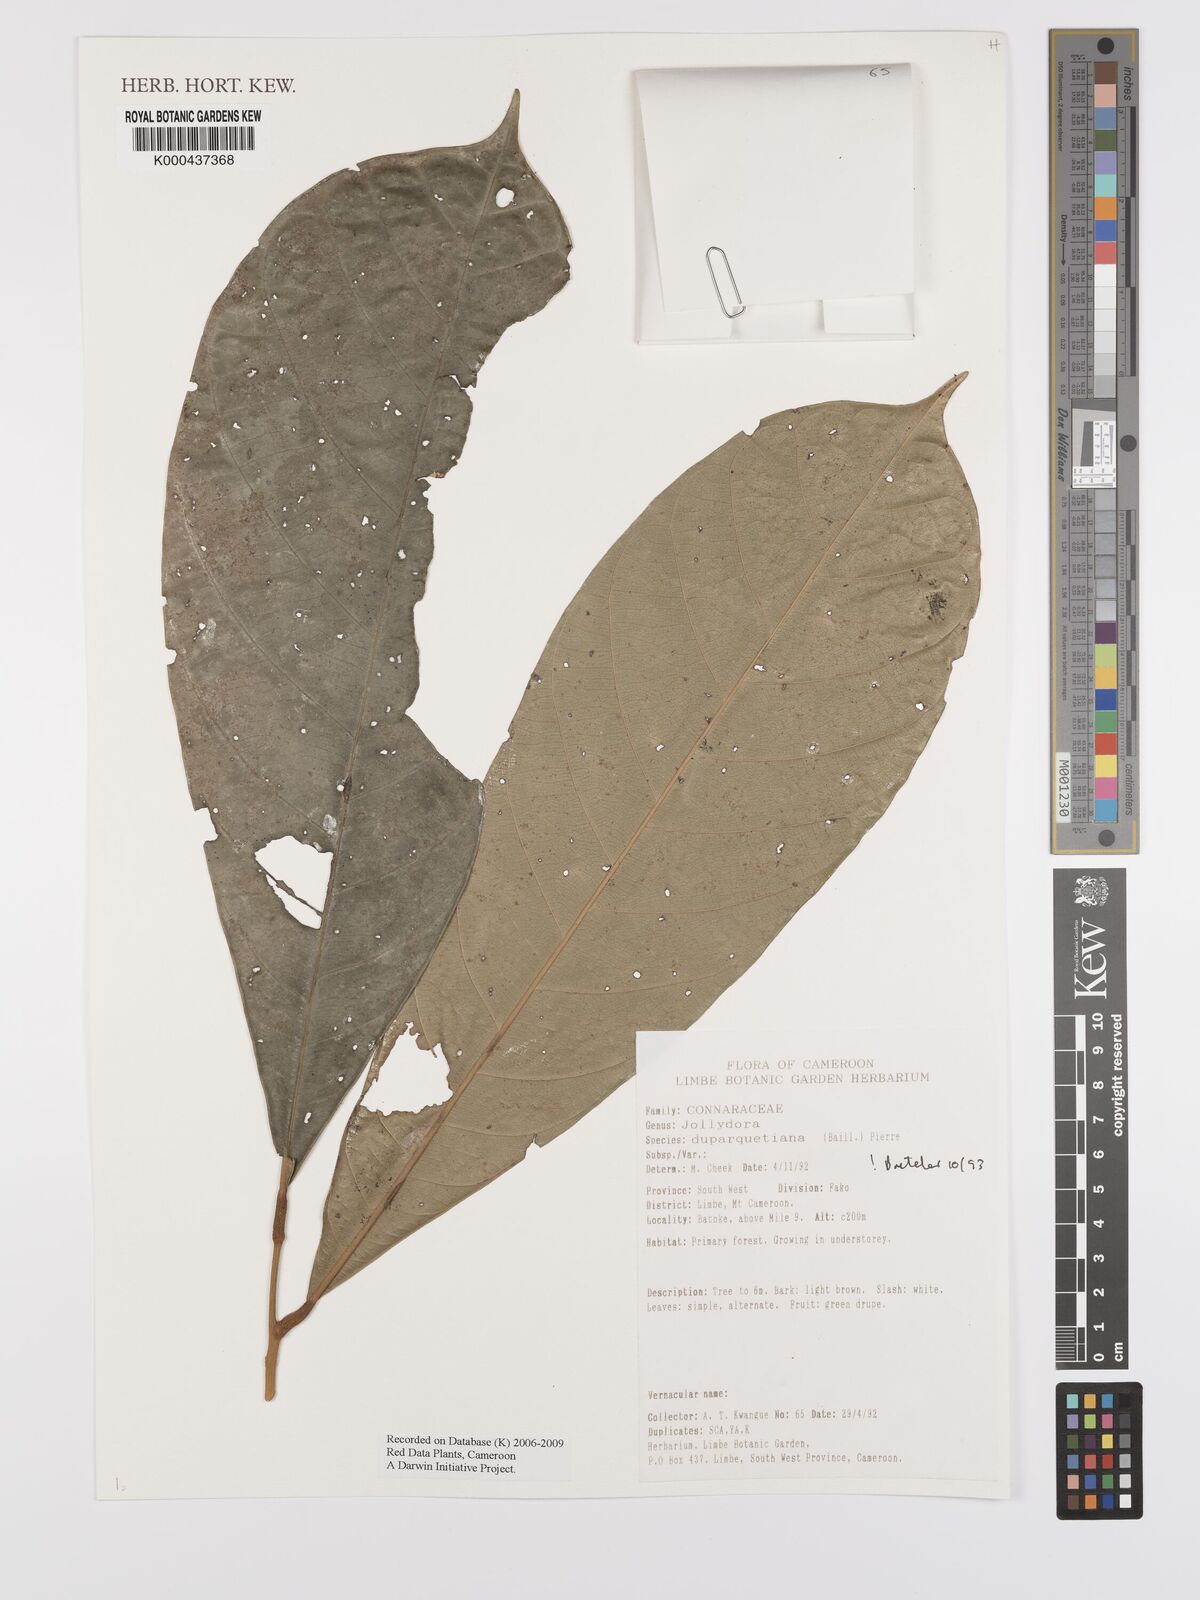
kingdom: Plantae
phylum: Tracheophyta
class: Magnoliopsida
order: Oxalidales
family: Connaraceae
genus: Jollydora
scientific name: Jollydora duparquetiana
